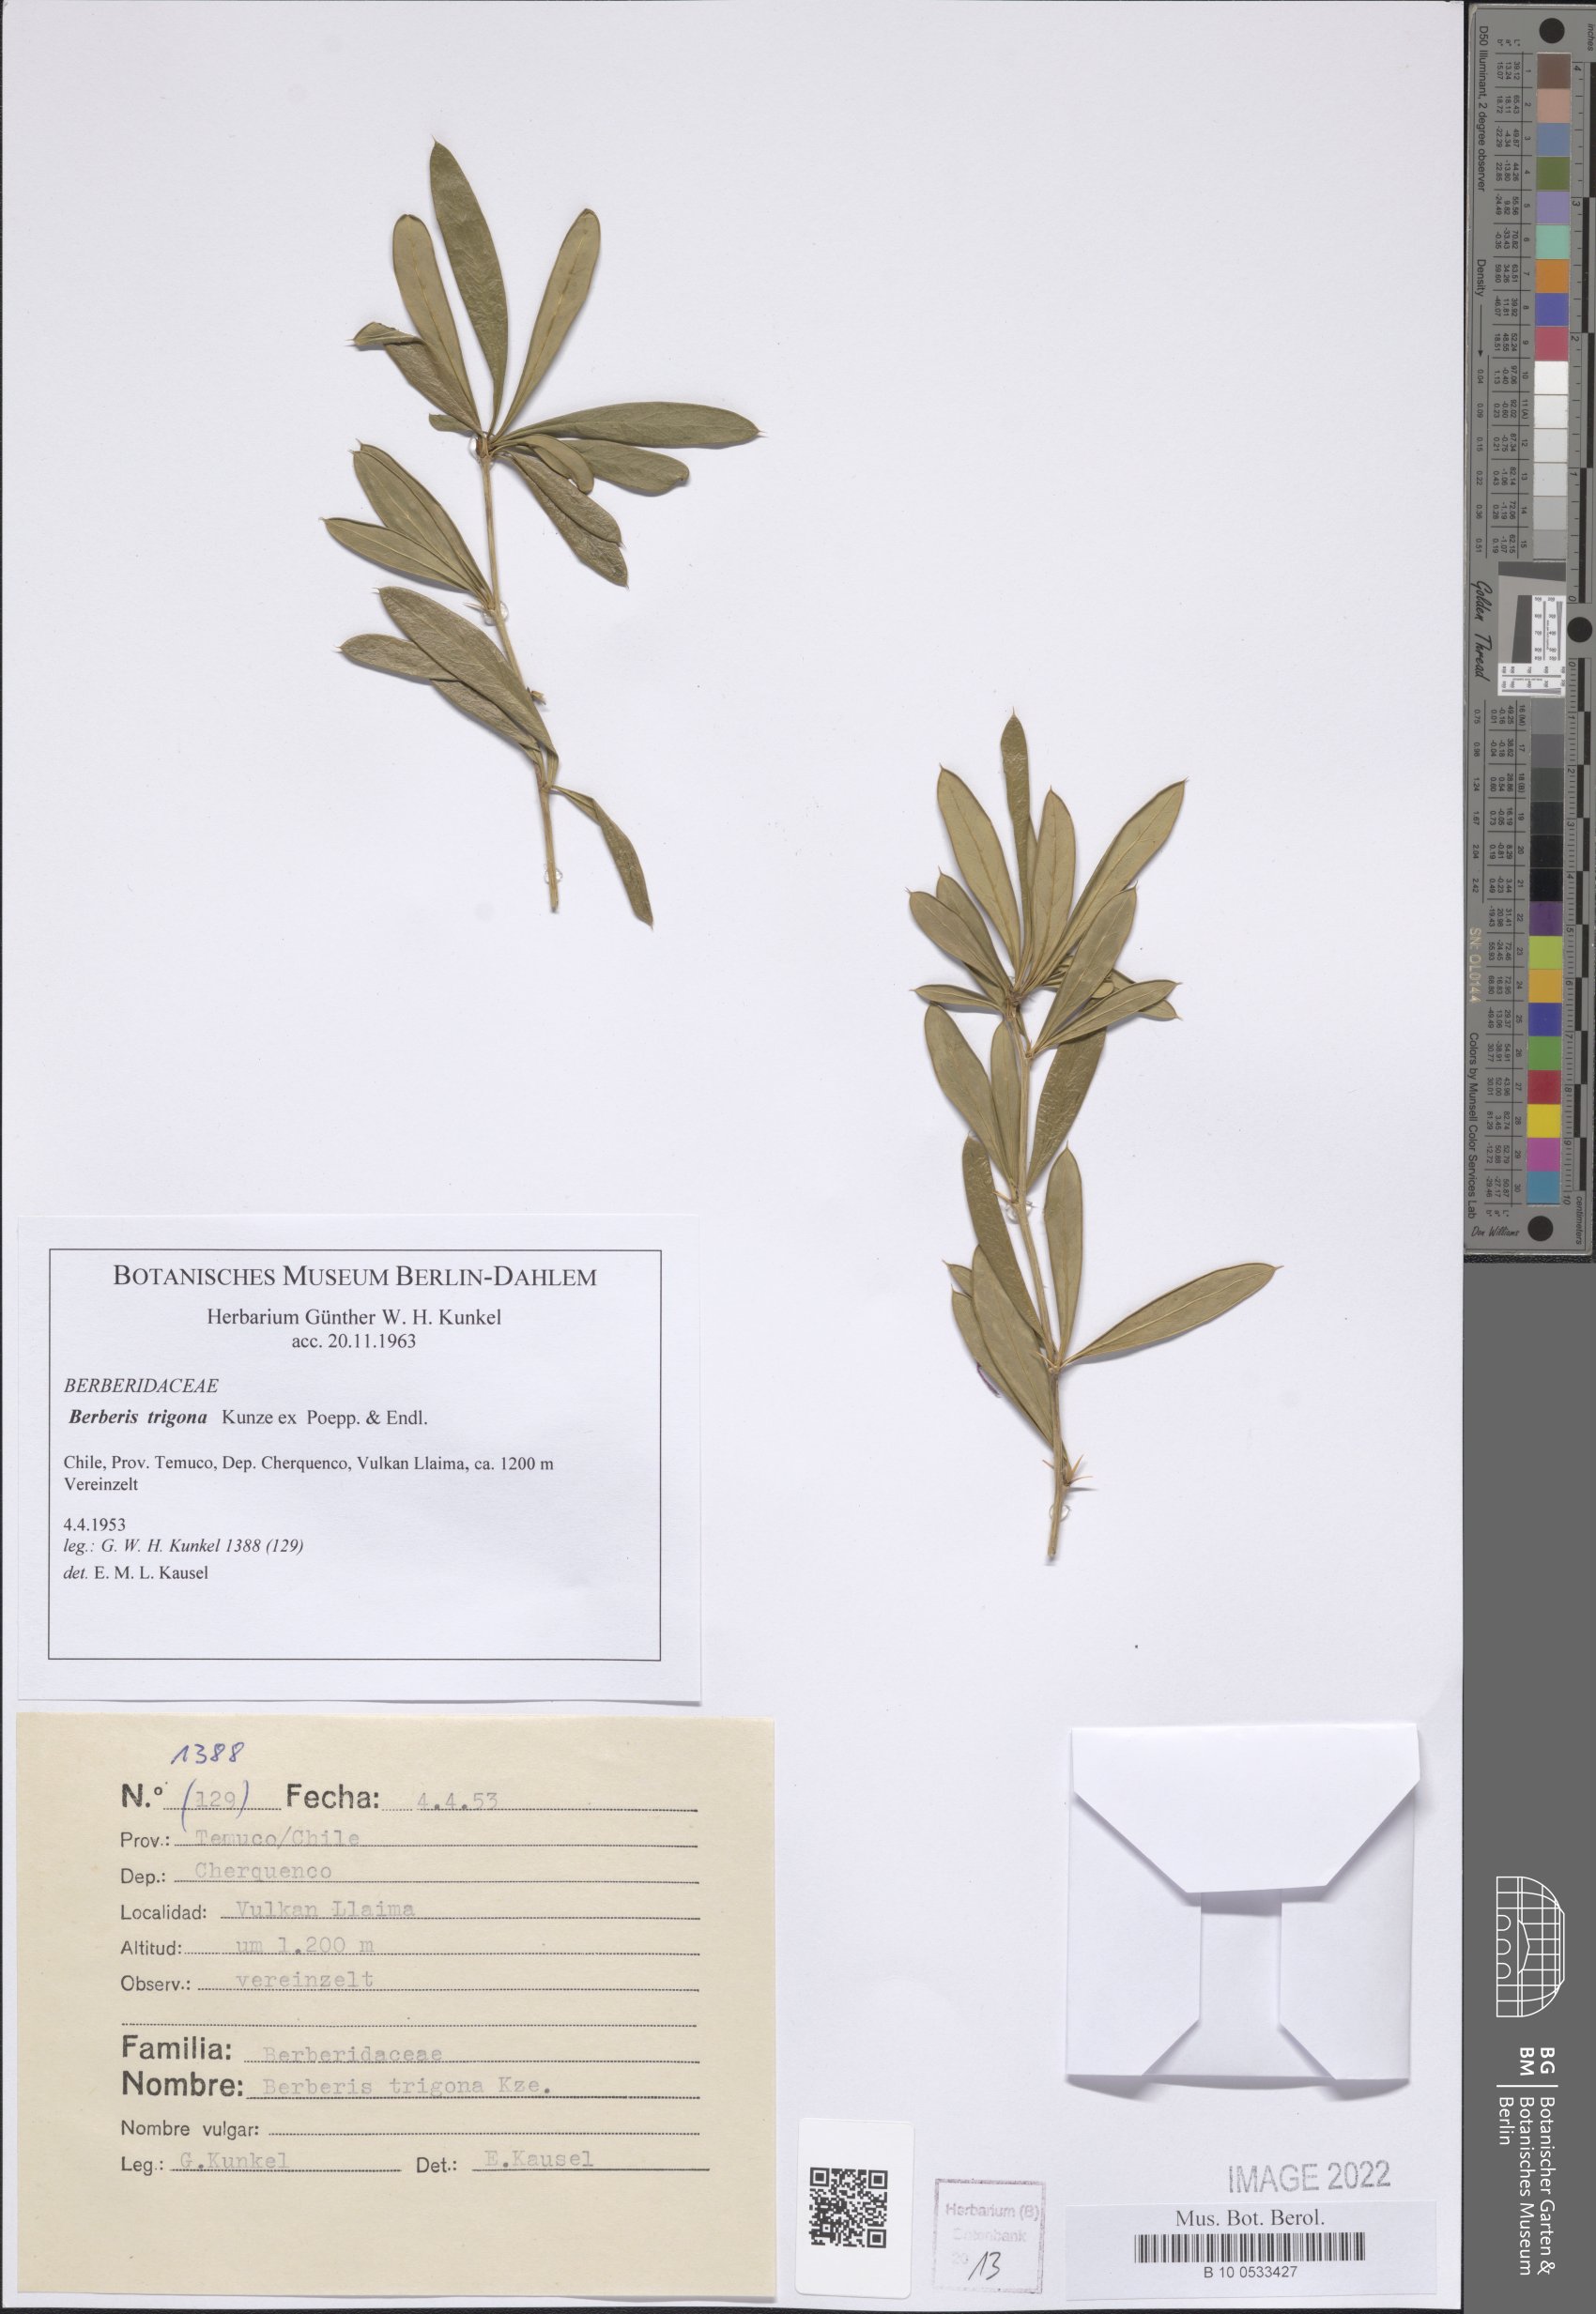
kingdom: Plantae
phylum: Tracheophyta
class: Magnoliopsida
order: Ranunculales
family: Berberidaceae
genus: Berberis
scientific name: Berberis trigona
